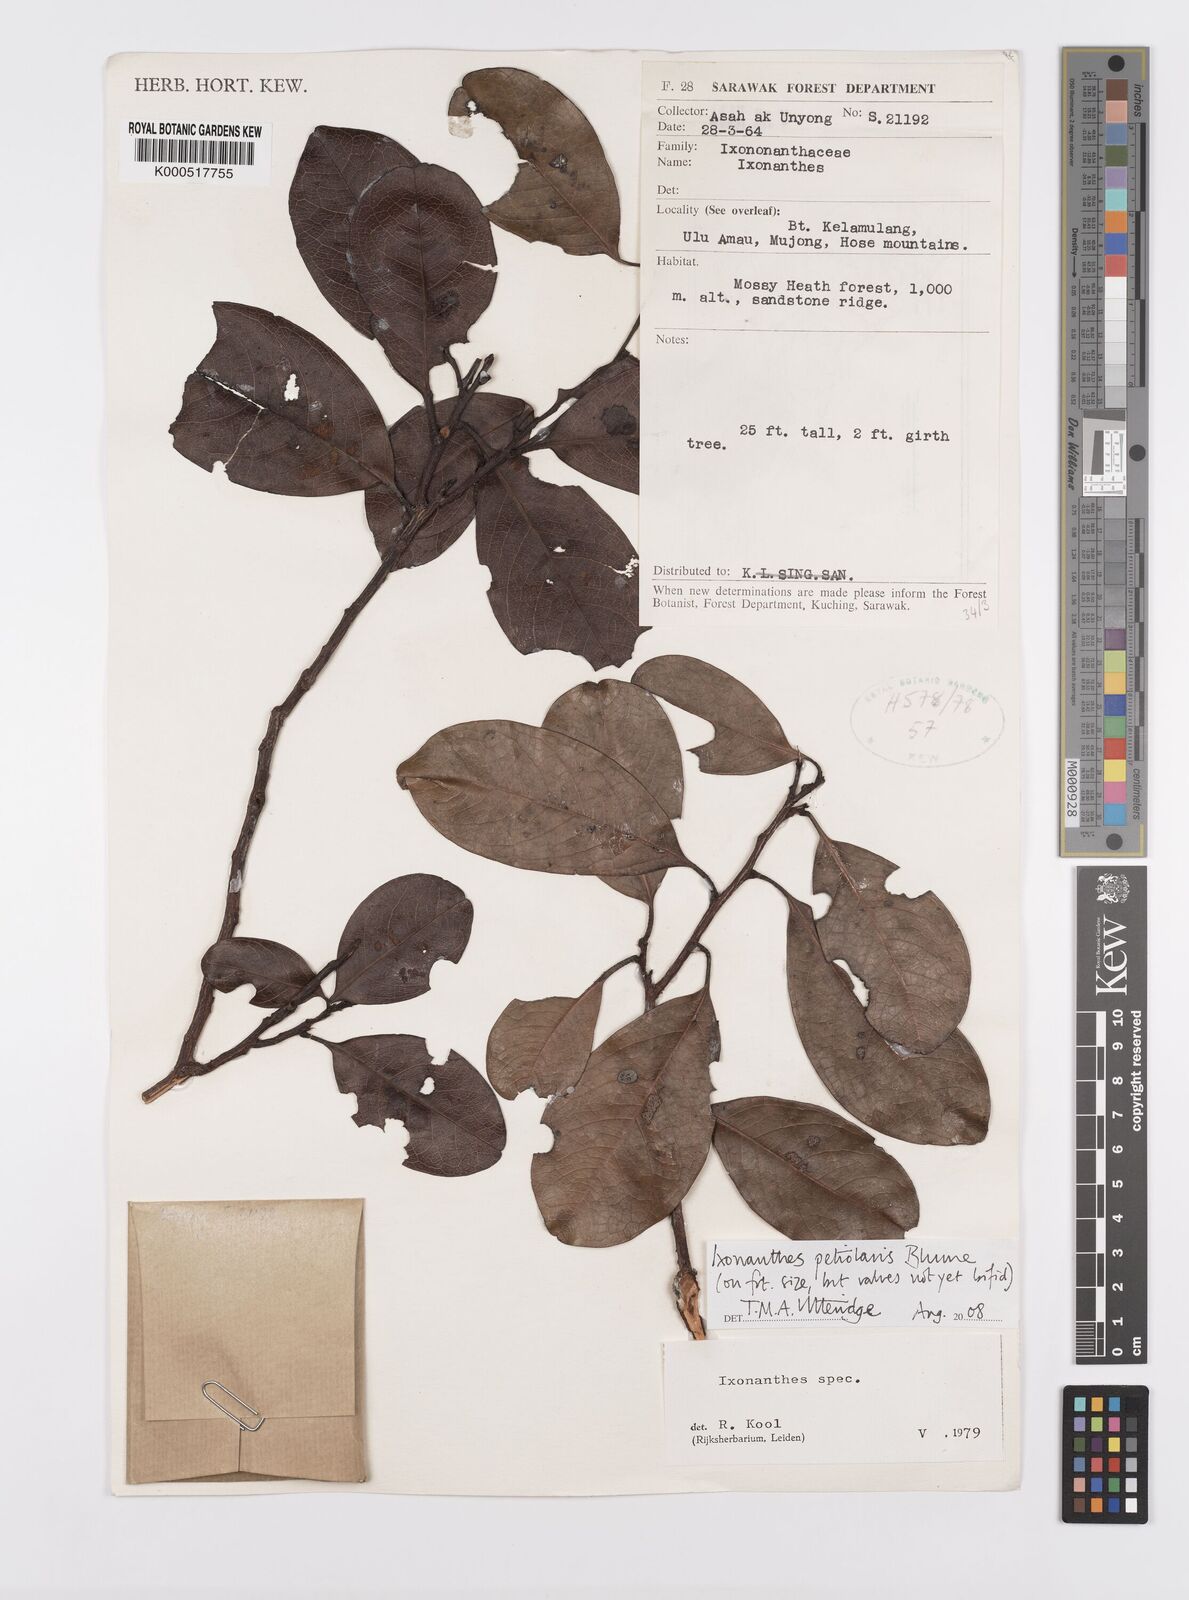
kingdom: Plantae
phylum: Tracheophyta
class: Magnoliopsida
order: Malpighiales
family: Ixonanthaceae
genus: Ixonanthes
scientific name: Ixonanthes petiolaris
